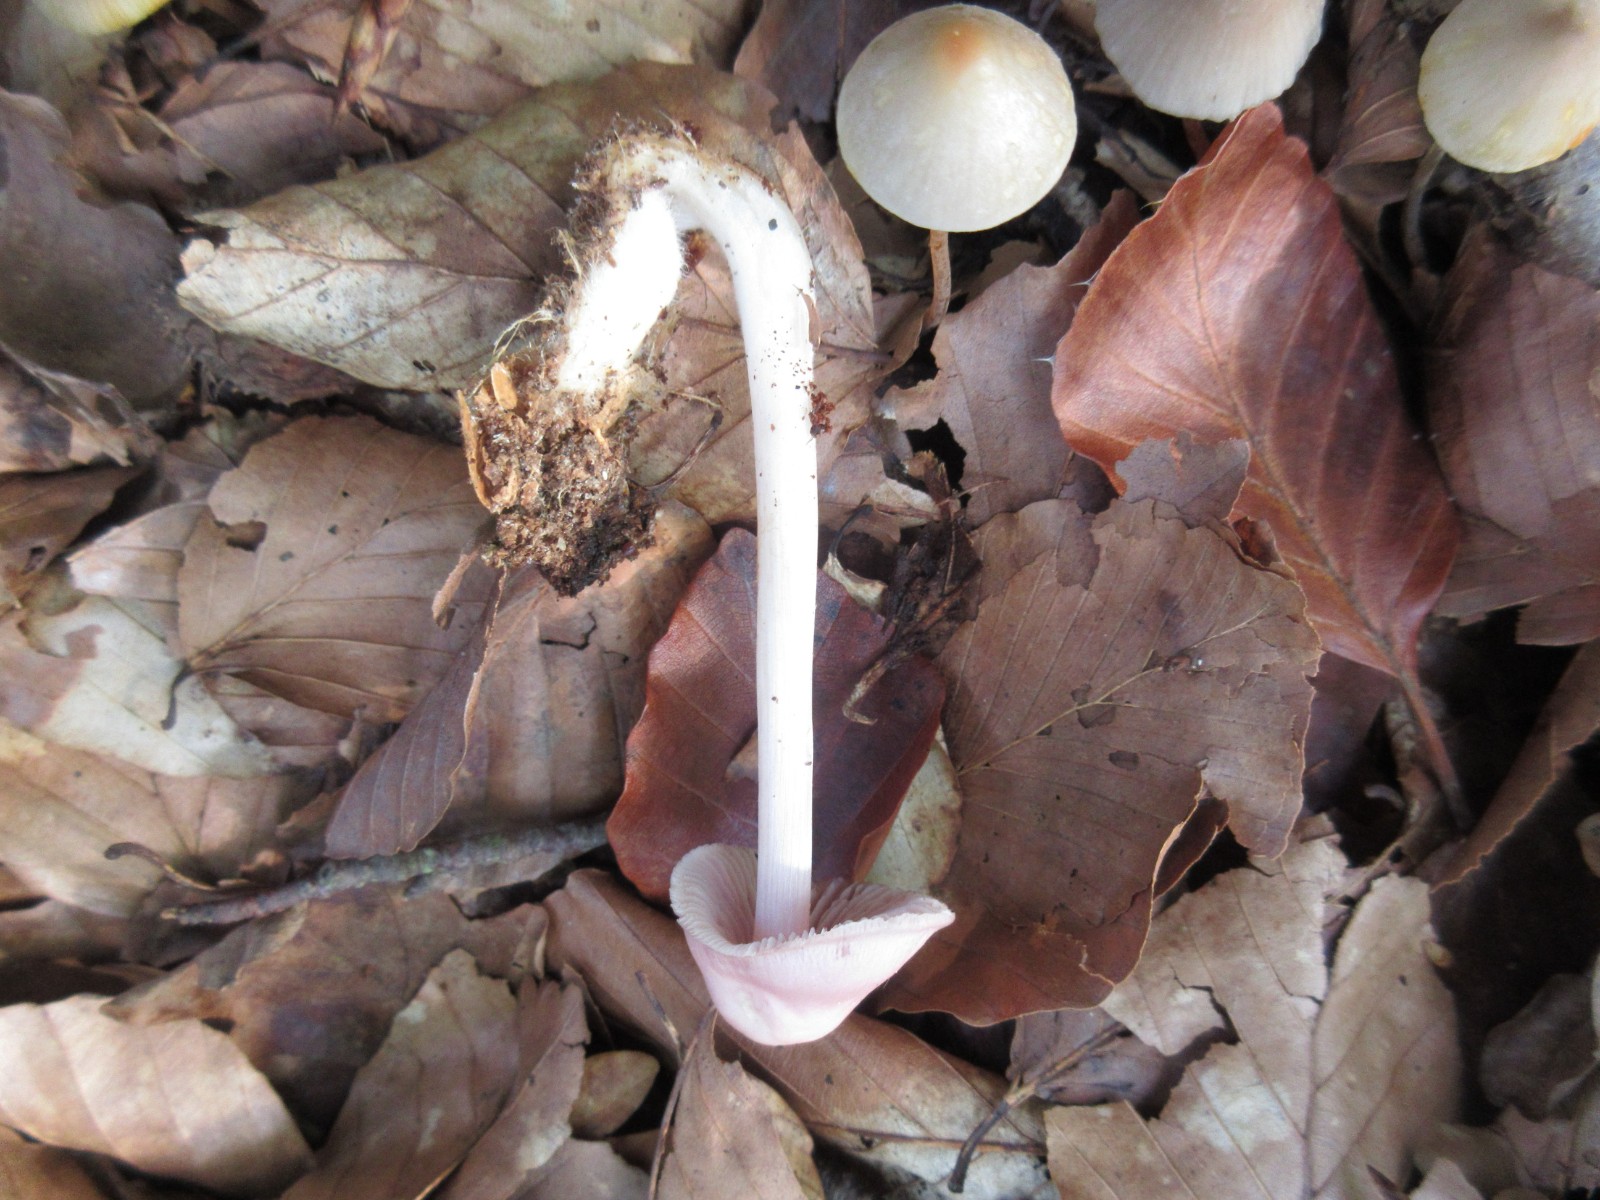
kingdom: Fungi
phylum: Basidiomycota
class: Agaricomycetes
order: Agaricales
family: Mycenaceae
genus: Mycena
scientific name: Mycena rosea
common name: rosa huesvamp
